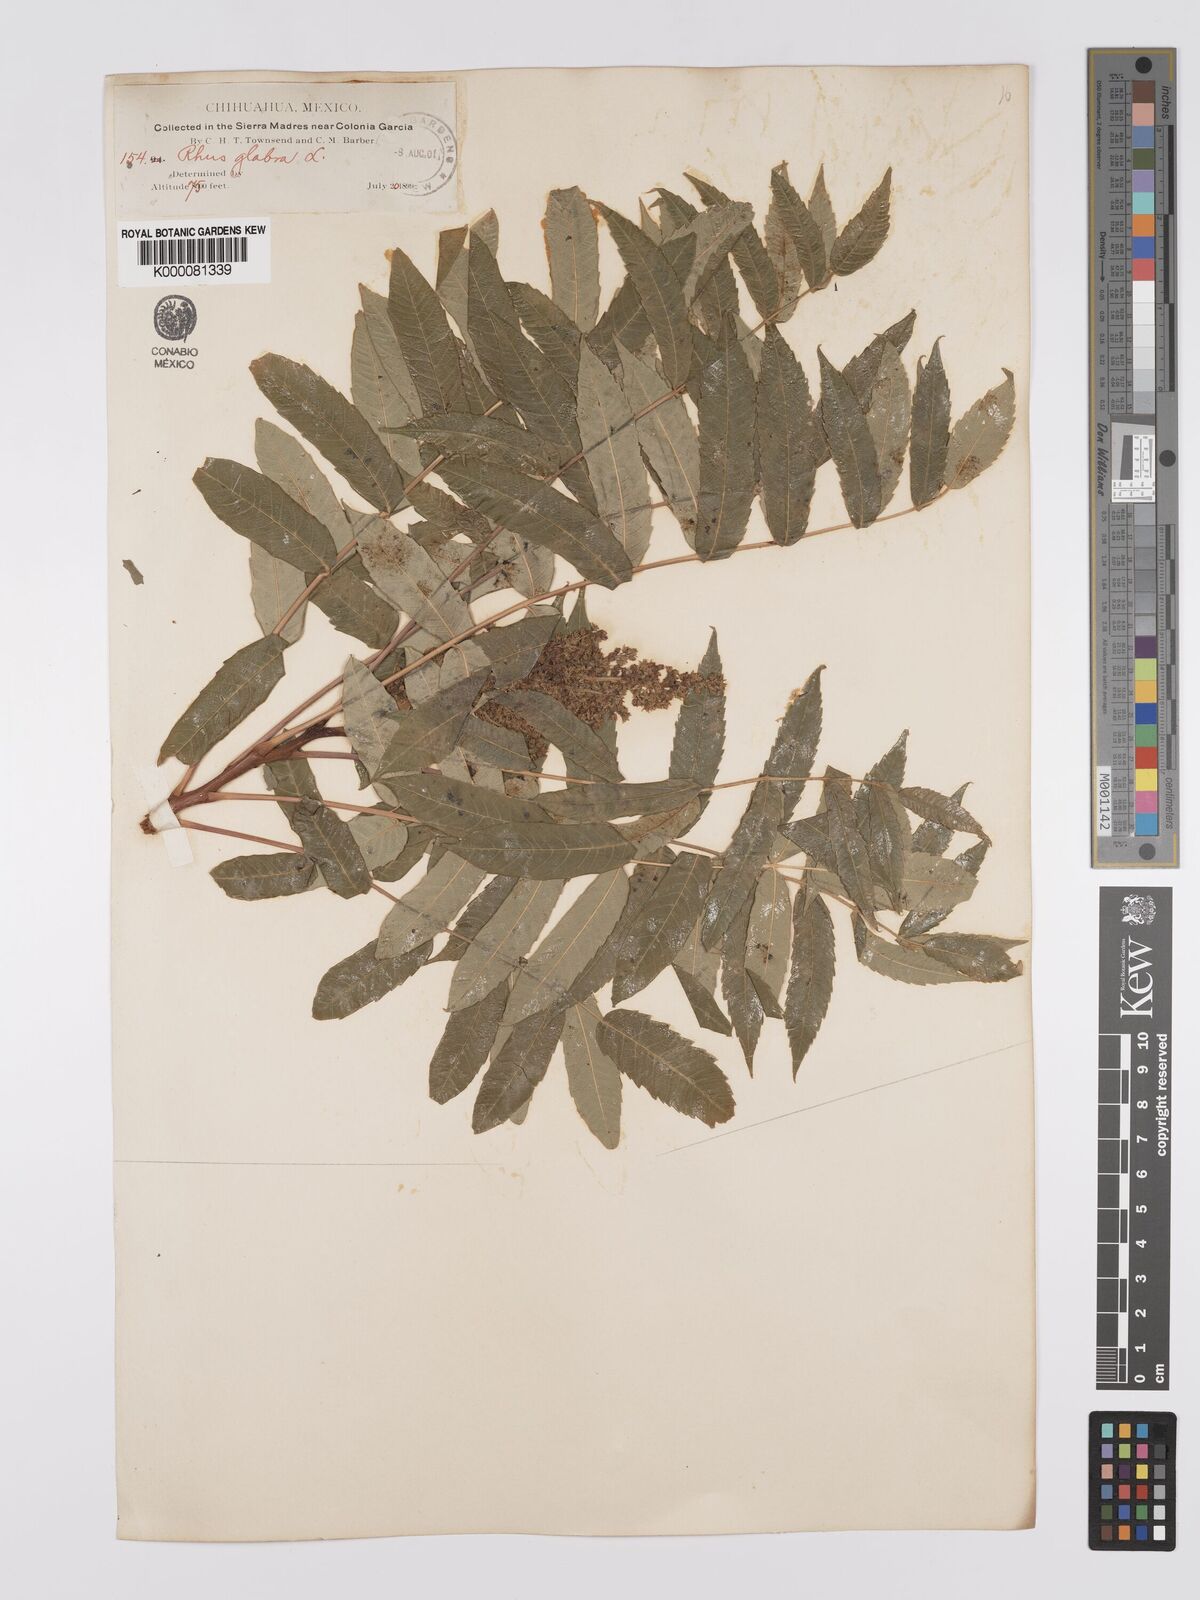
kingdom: Plantae
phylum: Tracheophyta
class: Magnoliopsida
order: Sapindales
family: Anacardiaceae
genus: Rhus
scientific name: Rhus glabra
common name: Scarlet sumac
